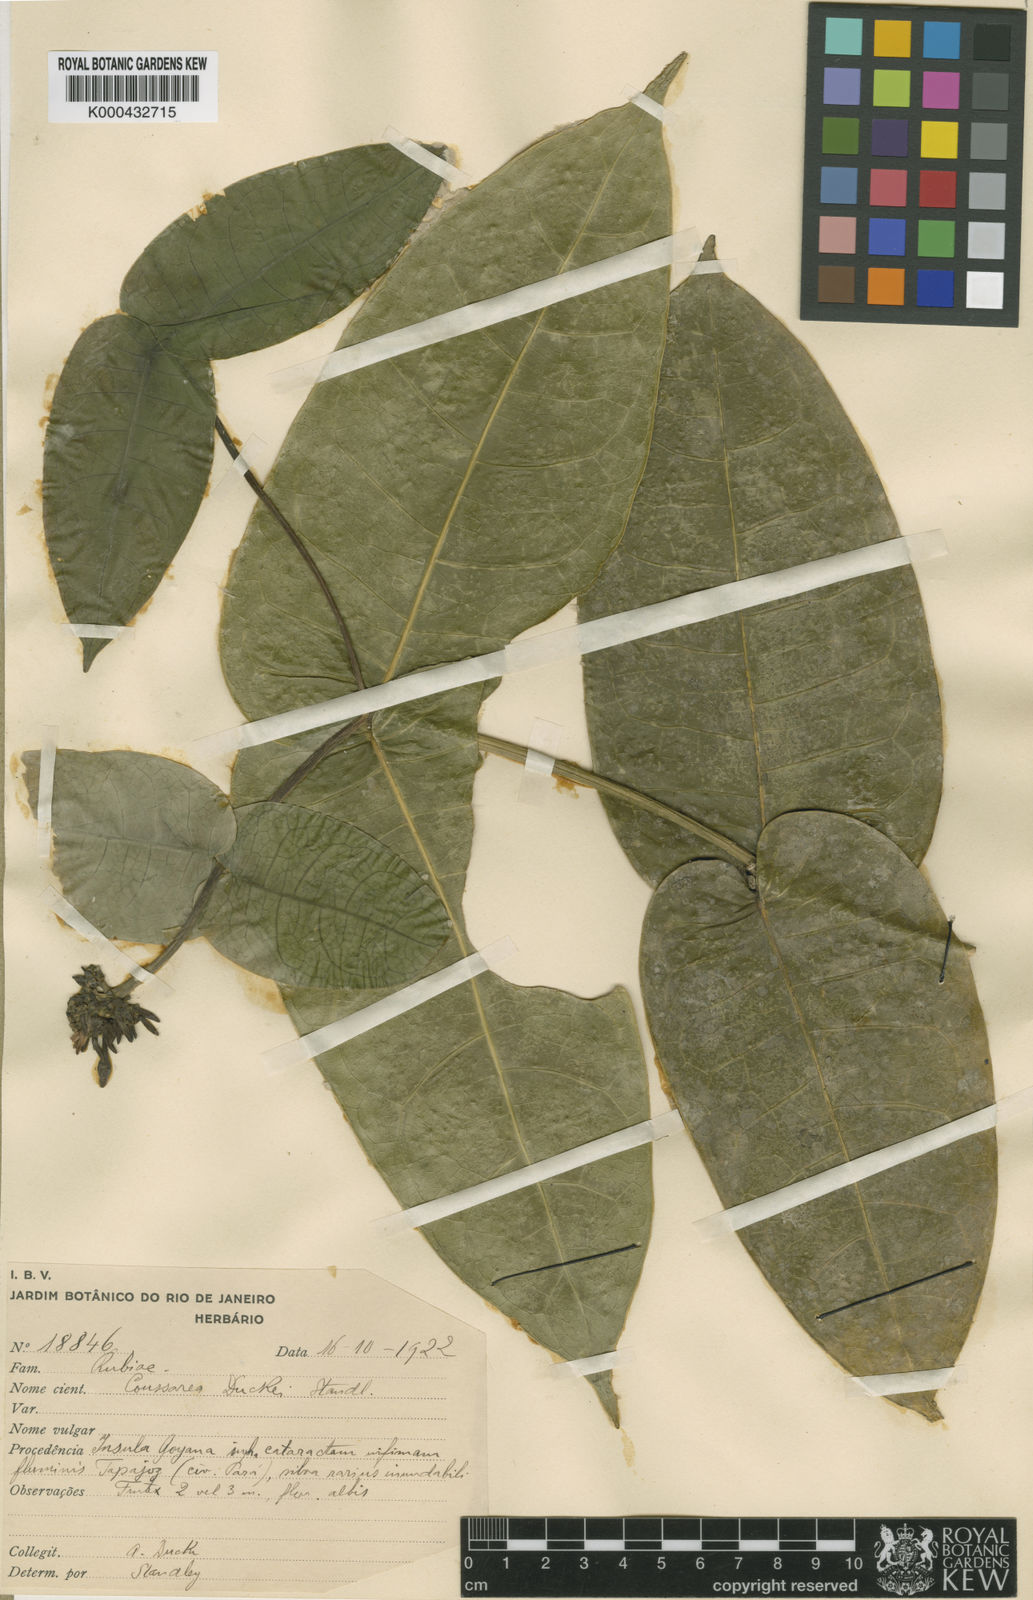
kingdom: Plantae
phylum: Tracheophyta
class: Magnoliopsida
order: Gentianales
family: Rubiaceae
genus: Coussarea
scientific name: Coussarea duckei
